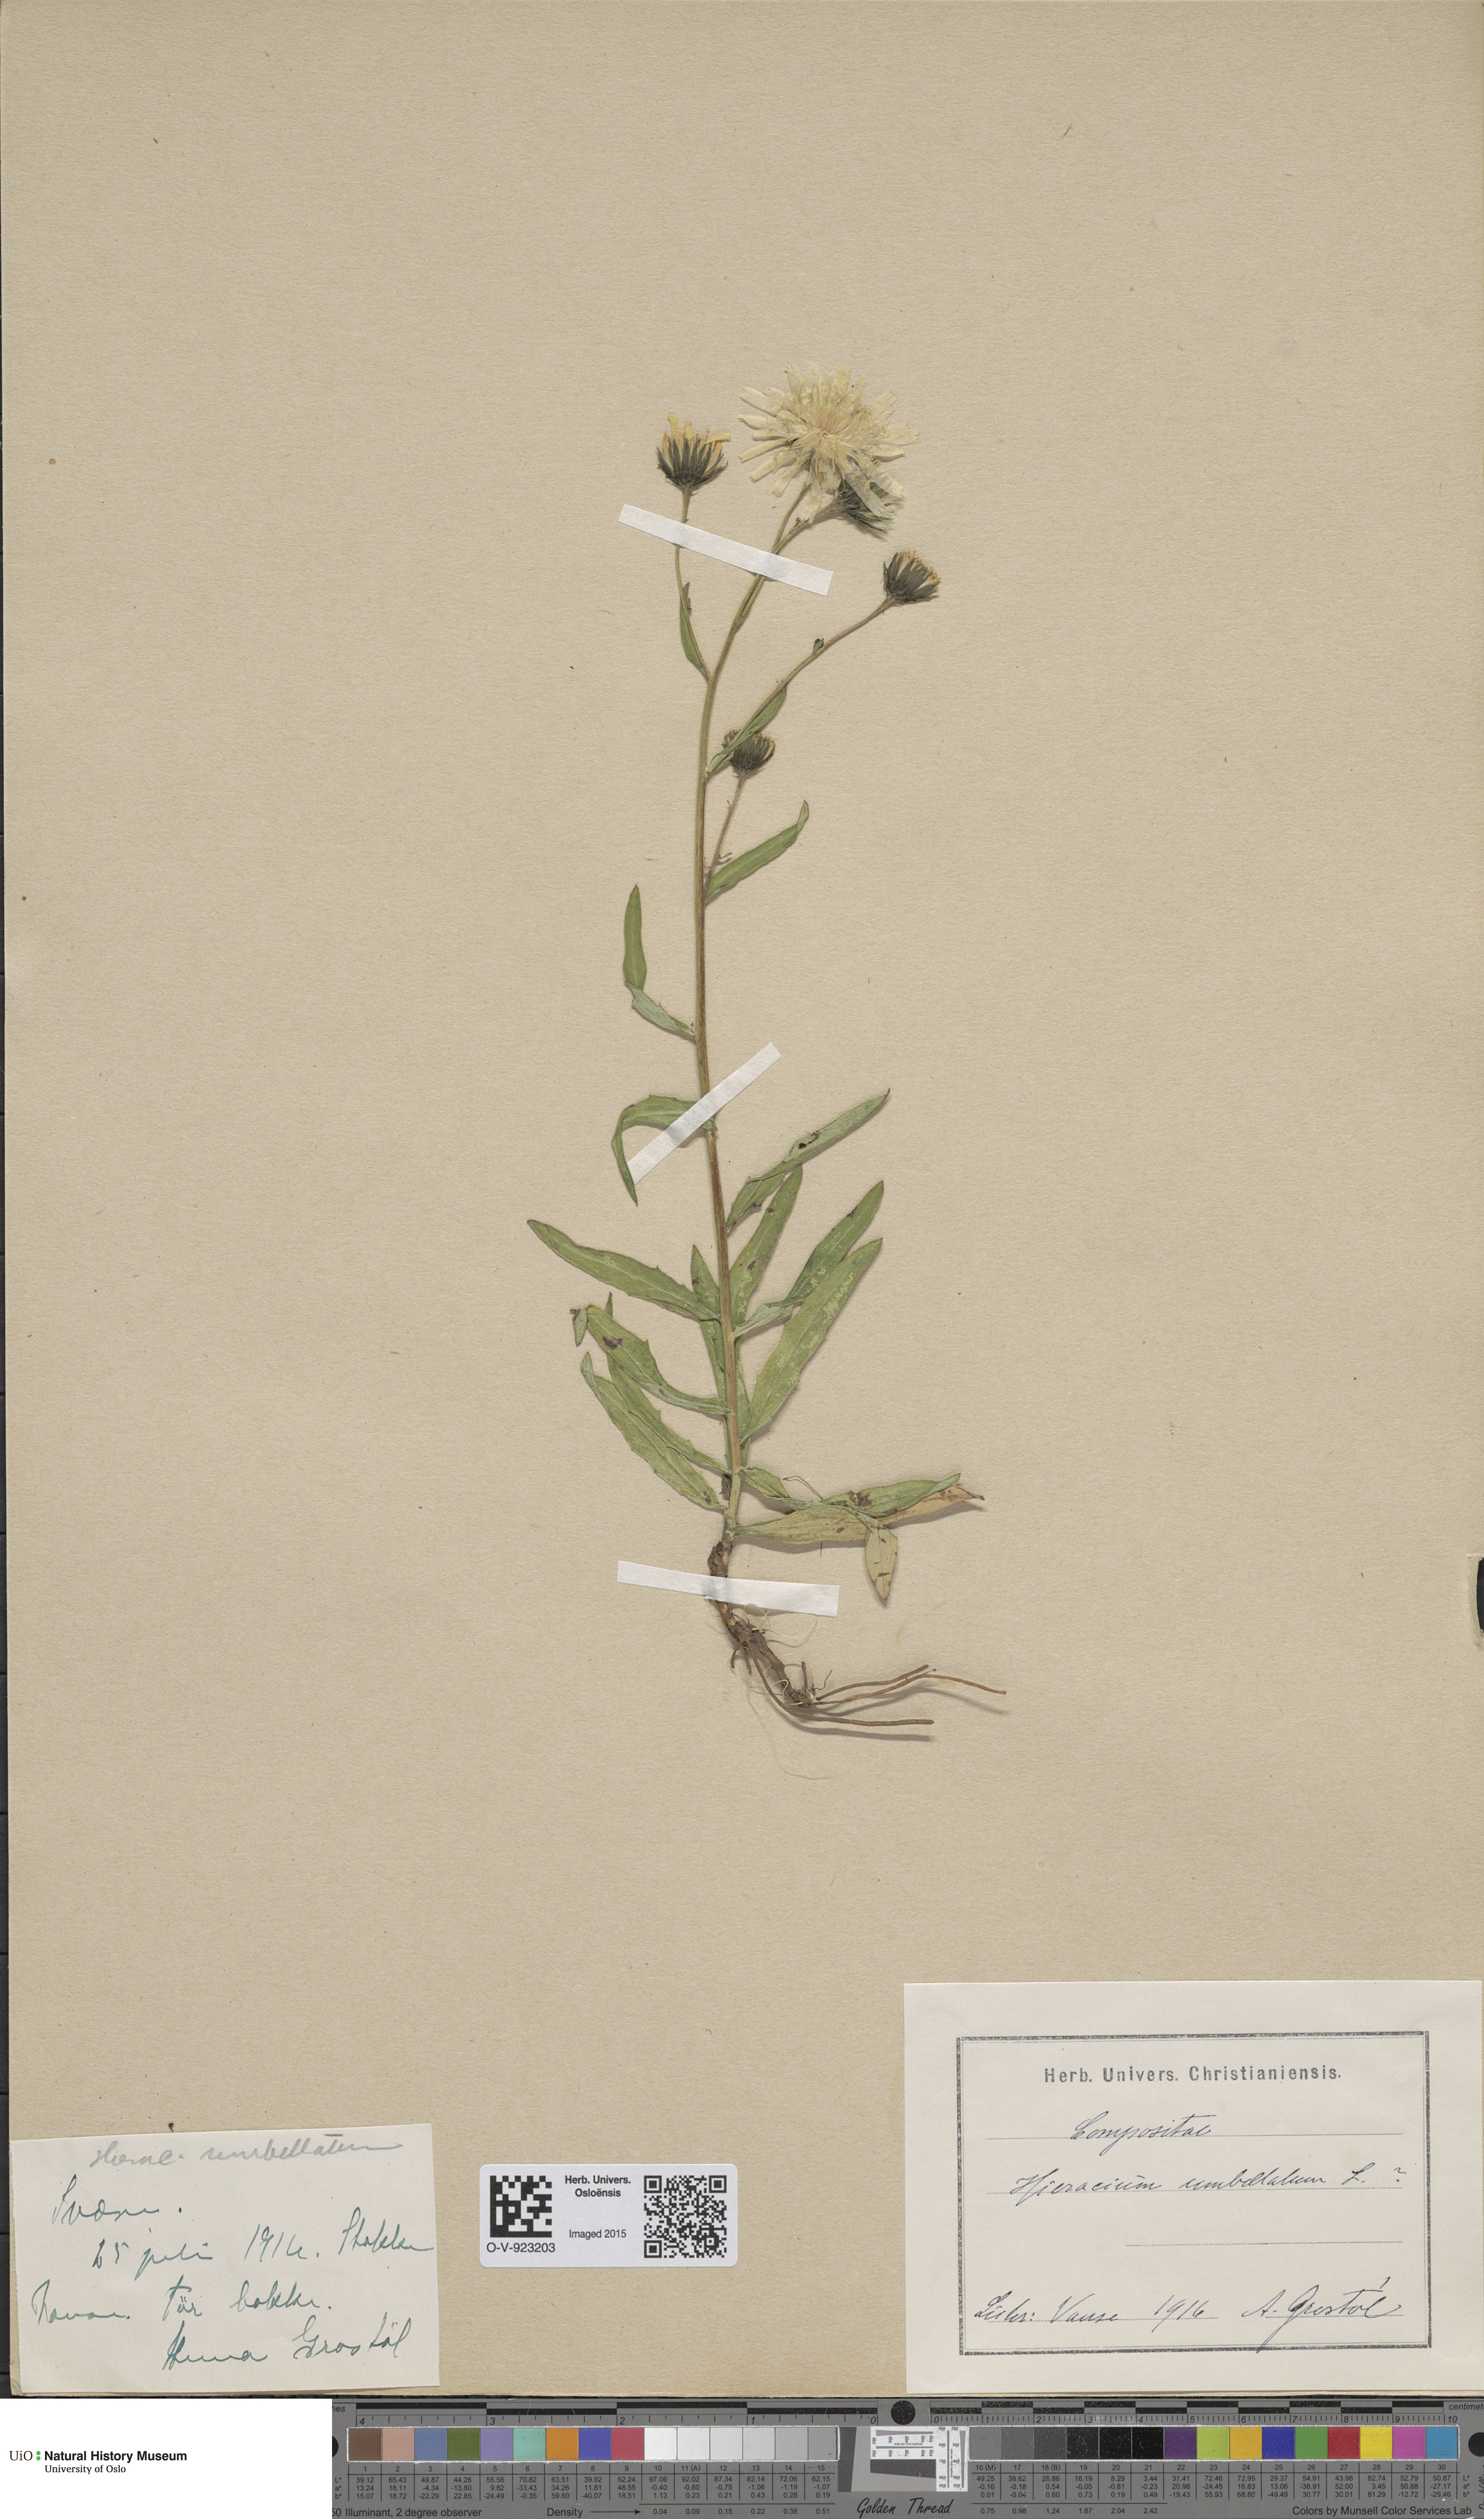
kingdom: Plantae
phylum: Tracheophyta
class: Magnoliopsida
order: Asterales
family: Asteraceae
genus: Hieracium
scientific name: Hieracium umbellatum
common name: Northern hawkweed
